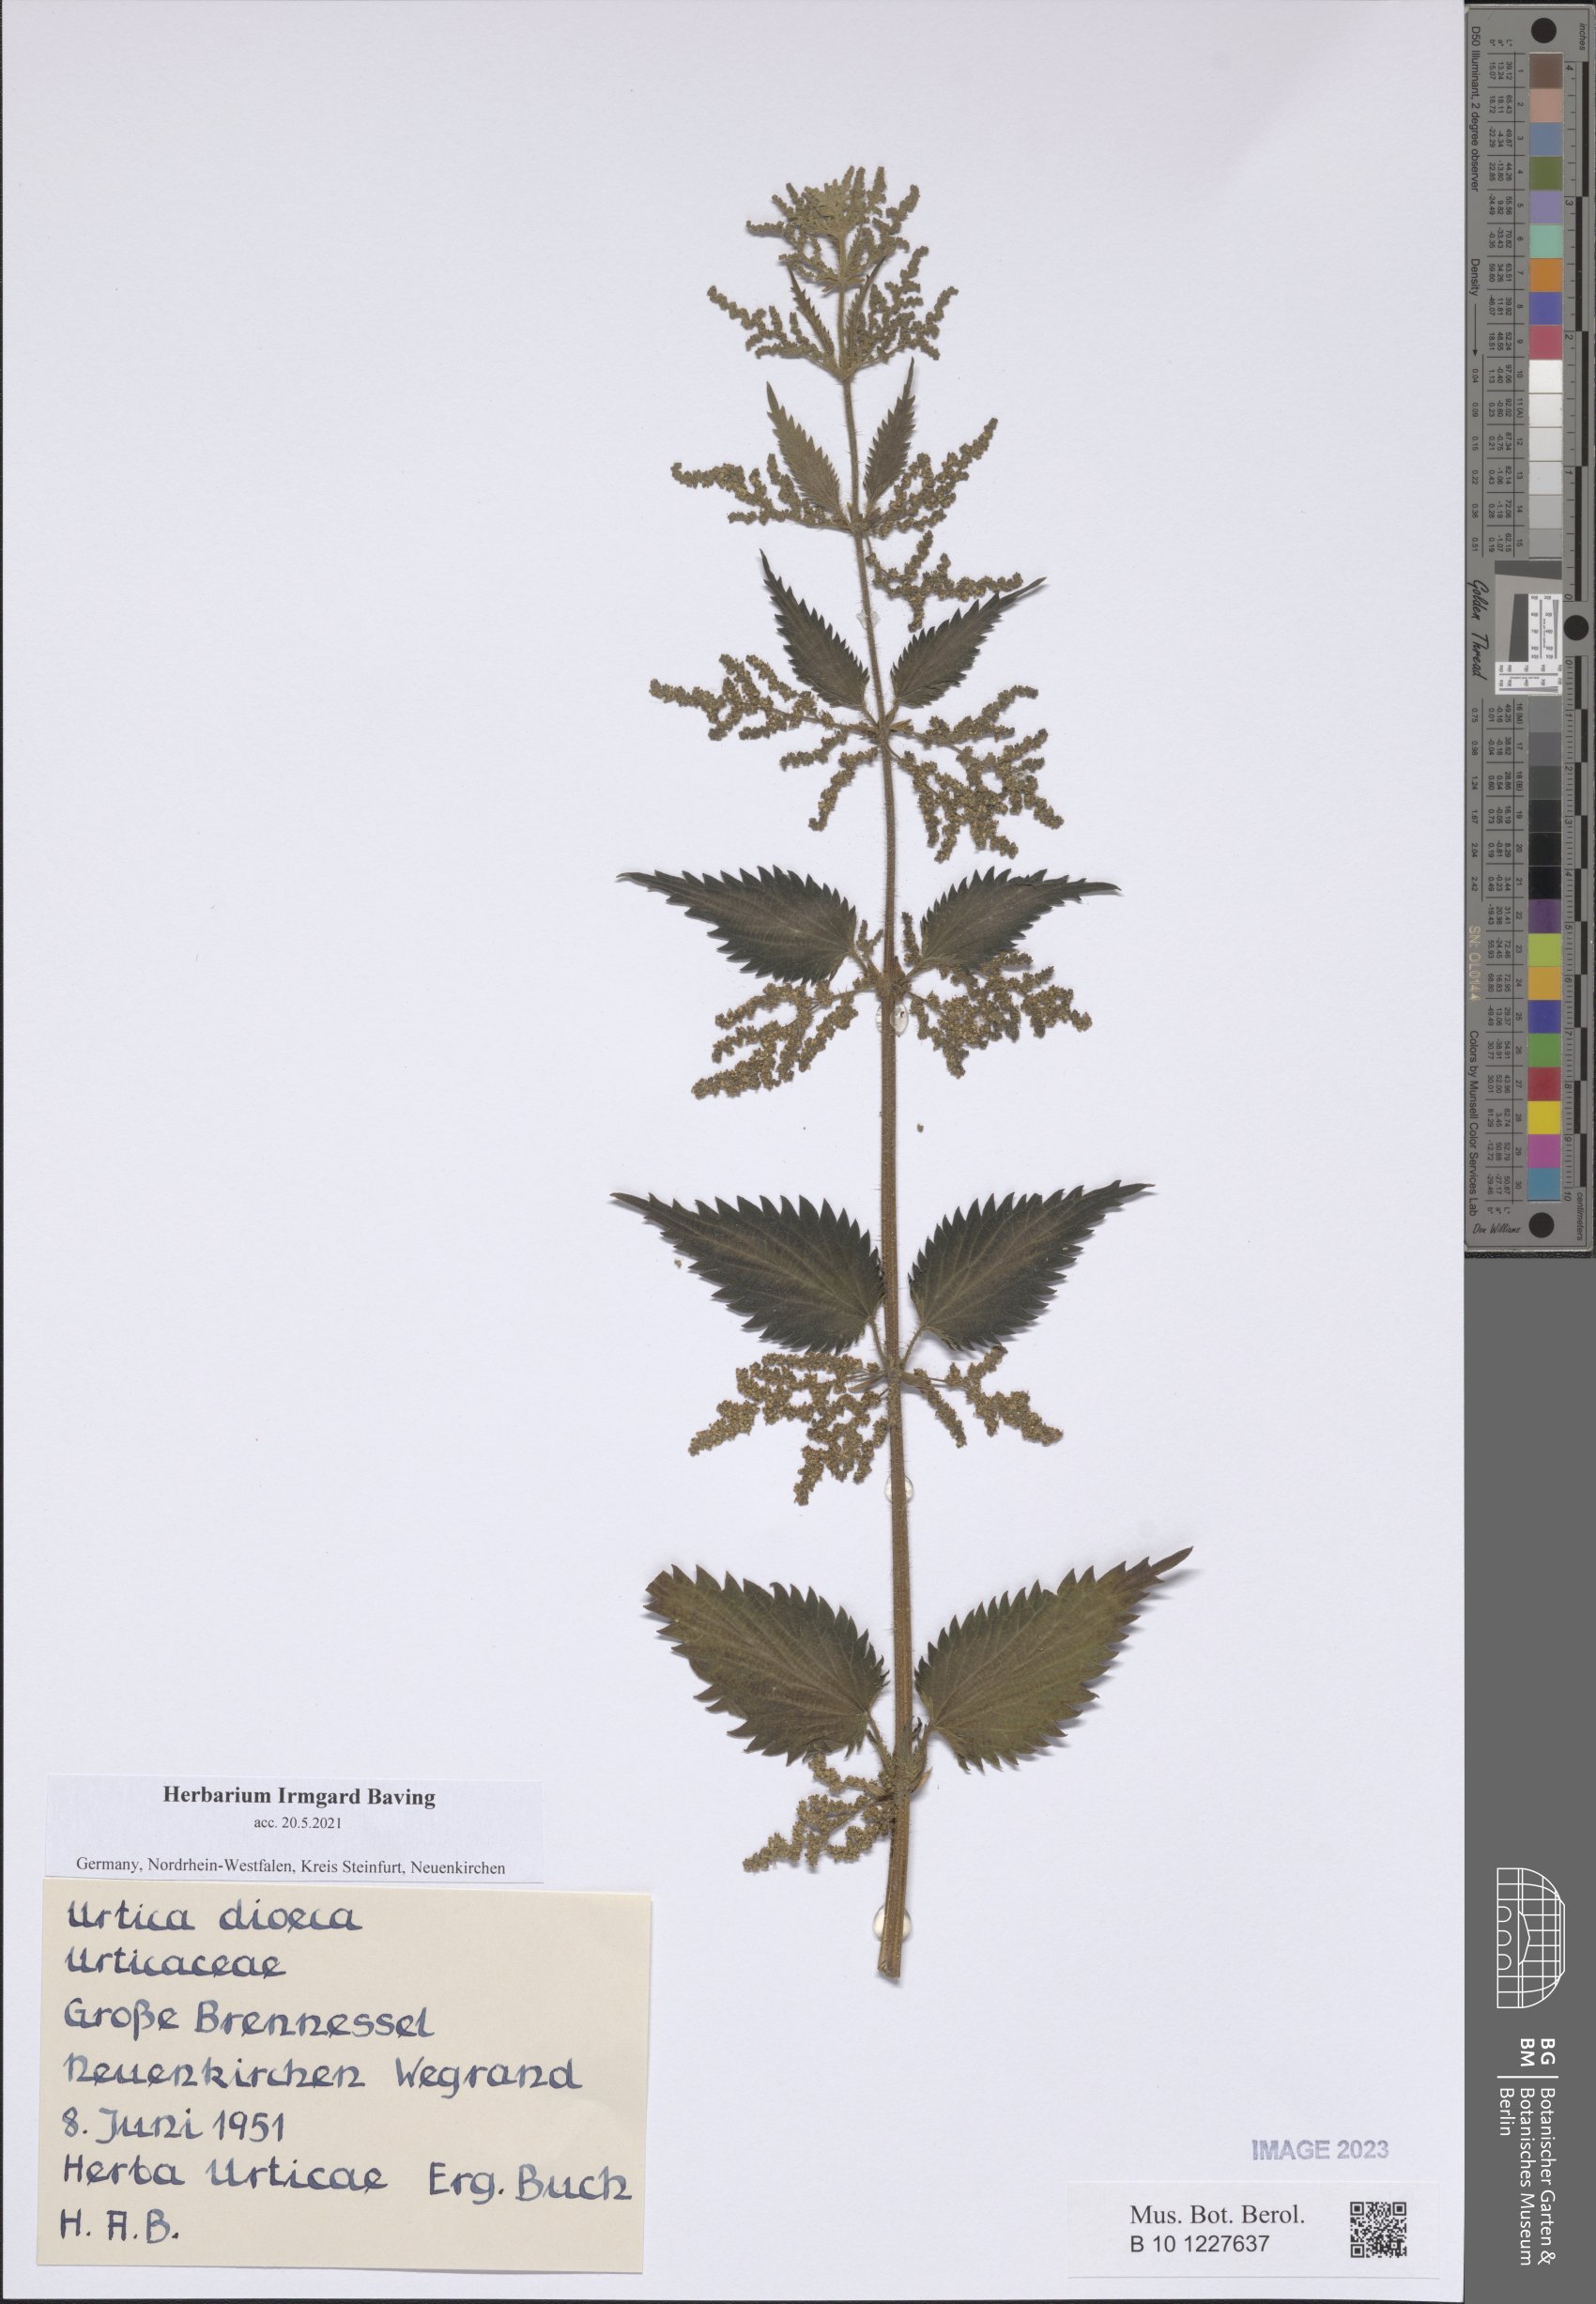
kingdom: Plantae
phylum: Tracheophyta
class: Magnoliopsida
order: Rosales
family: Urticaceae
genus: Urtica
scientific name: Urtica dioica
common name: Common nettle
